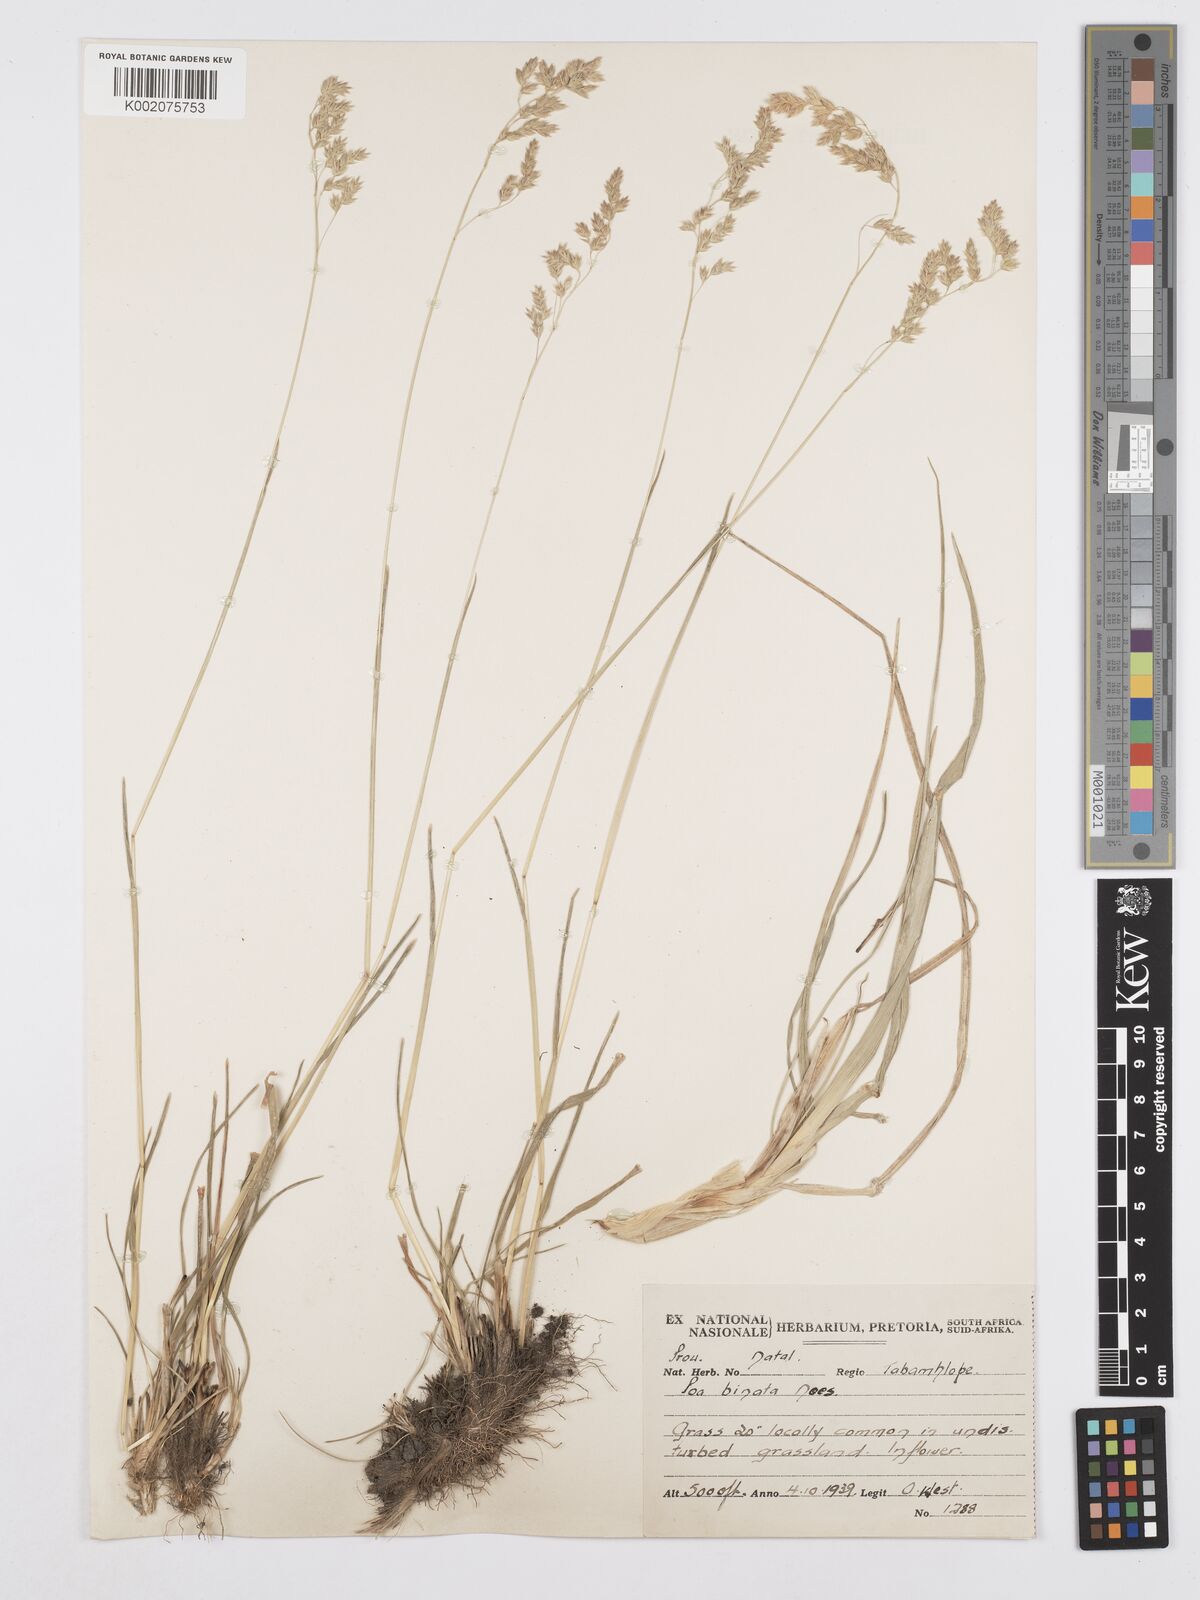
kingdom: Plantae
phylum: Tracheophyta
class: Liliopsida
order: Poales
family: Poaceae
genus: Poa
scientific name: Poa binata
